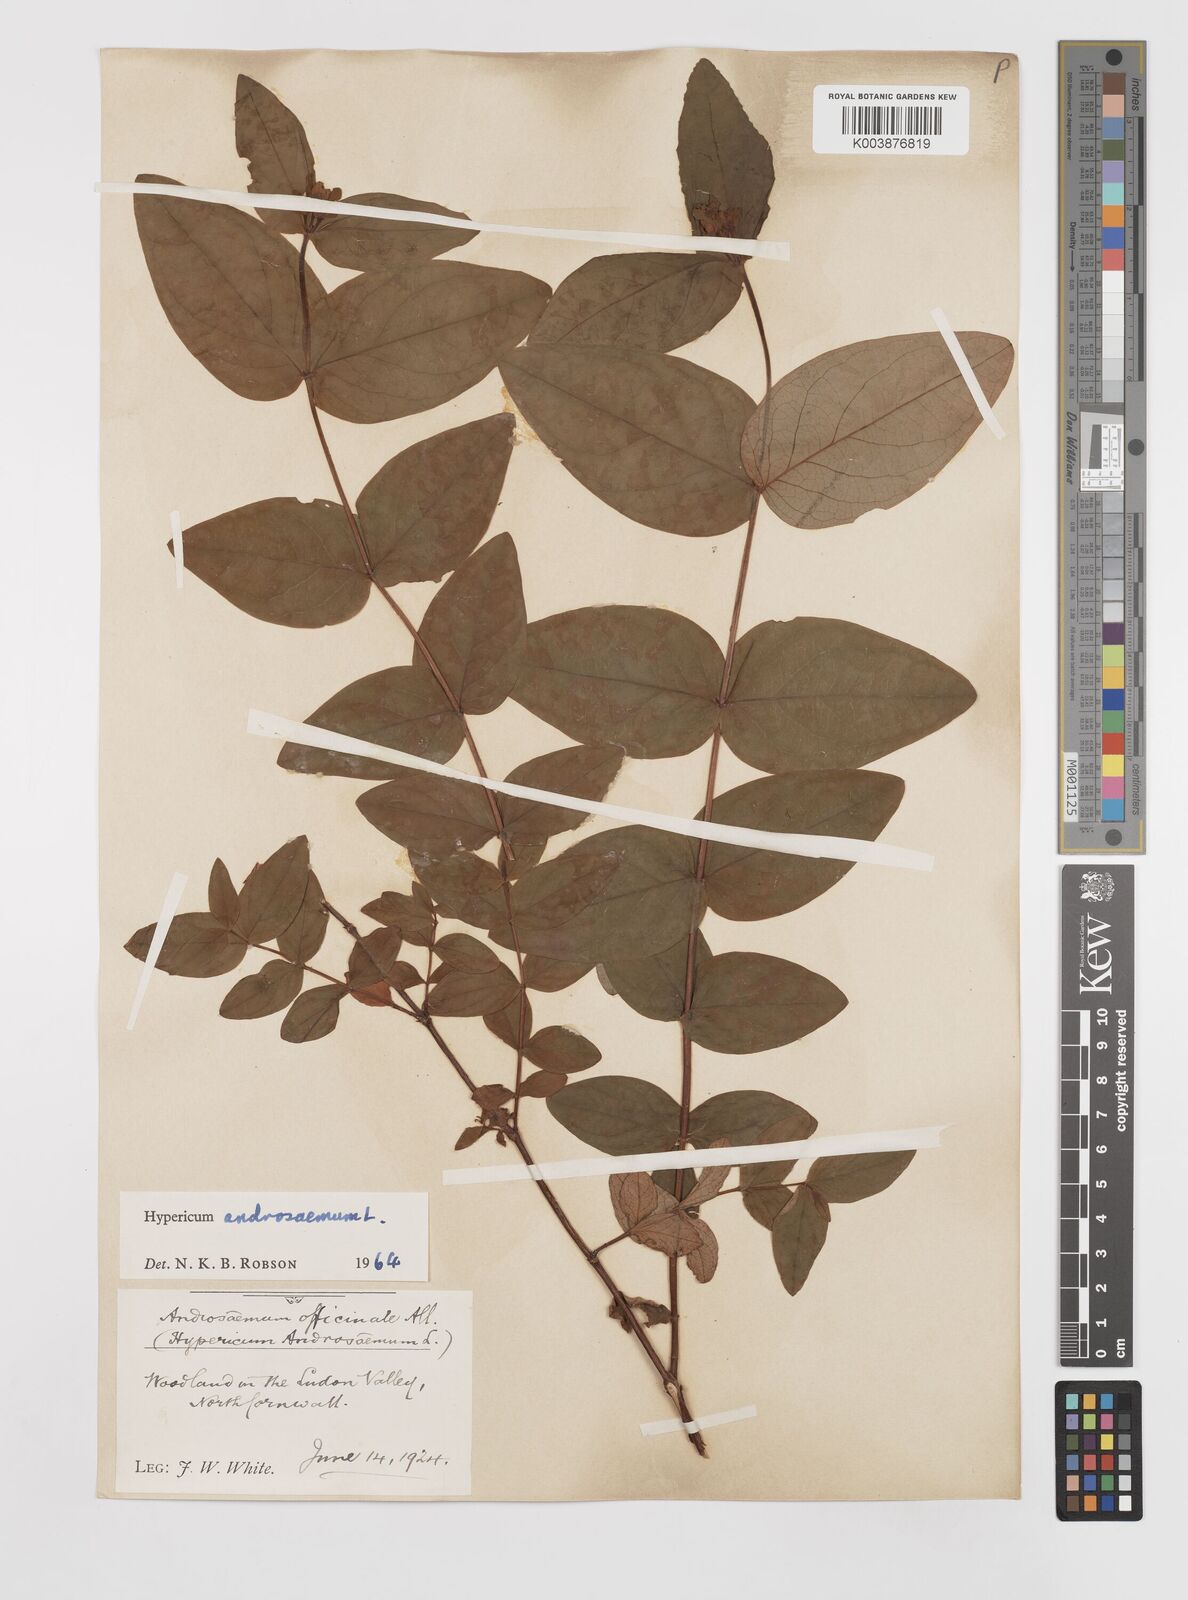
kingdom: Plantae
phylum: Tracheophyta
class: Magnoliopsida
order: Malpighiales
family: Hypericaceae
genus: Hypericum
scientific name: Hypericum androsaemum
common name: Sweet-amber
